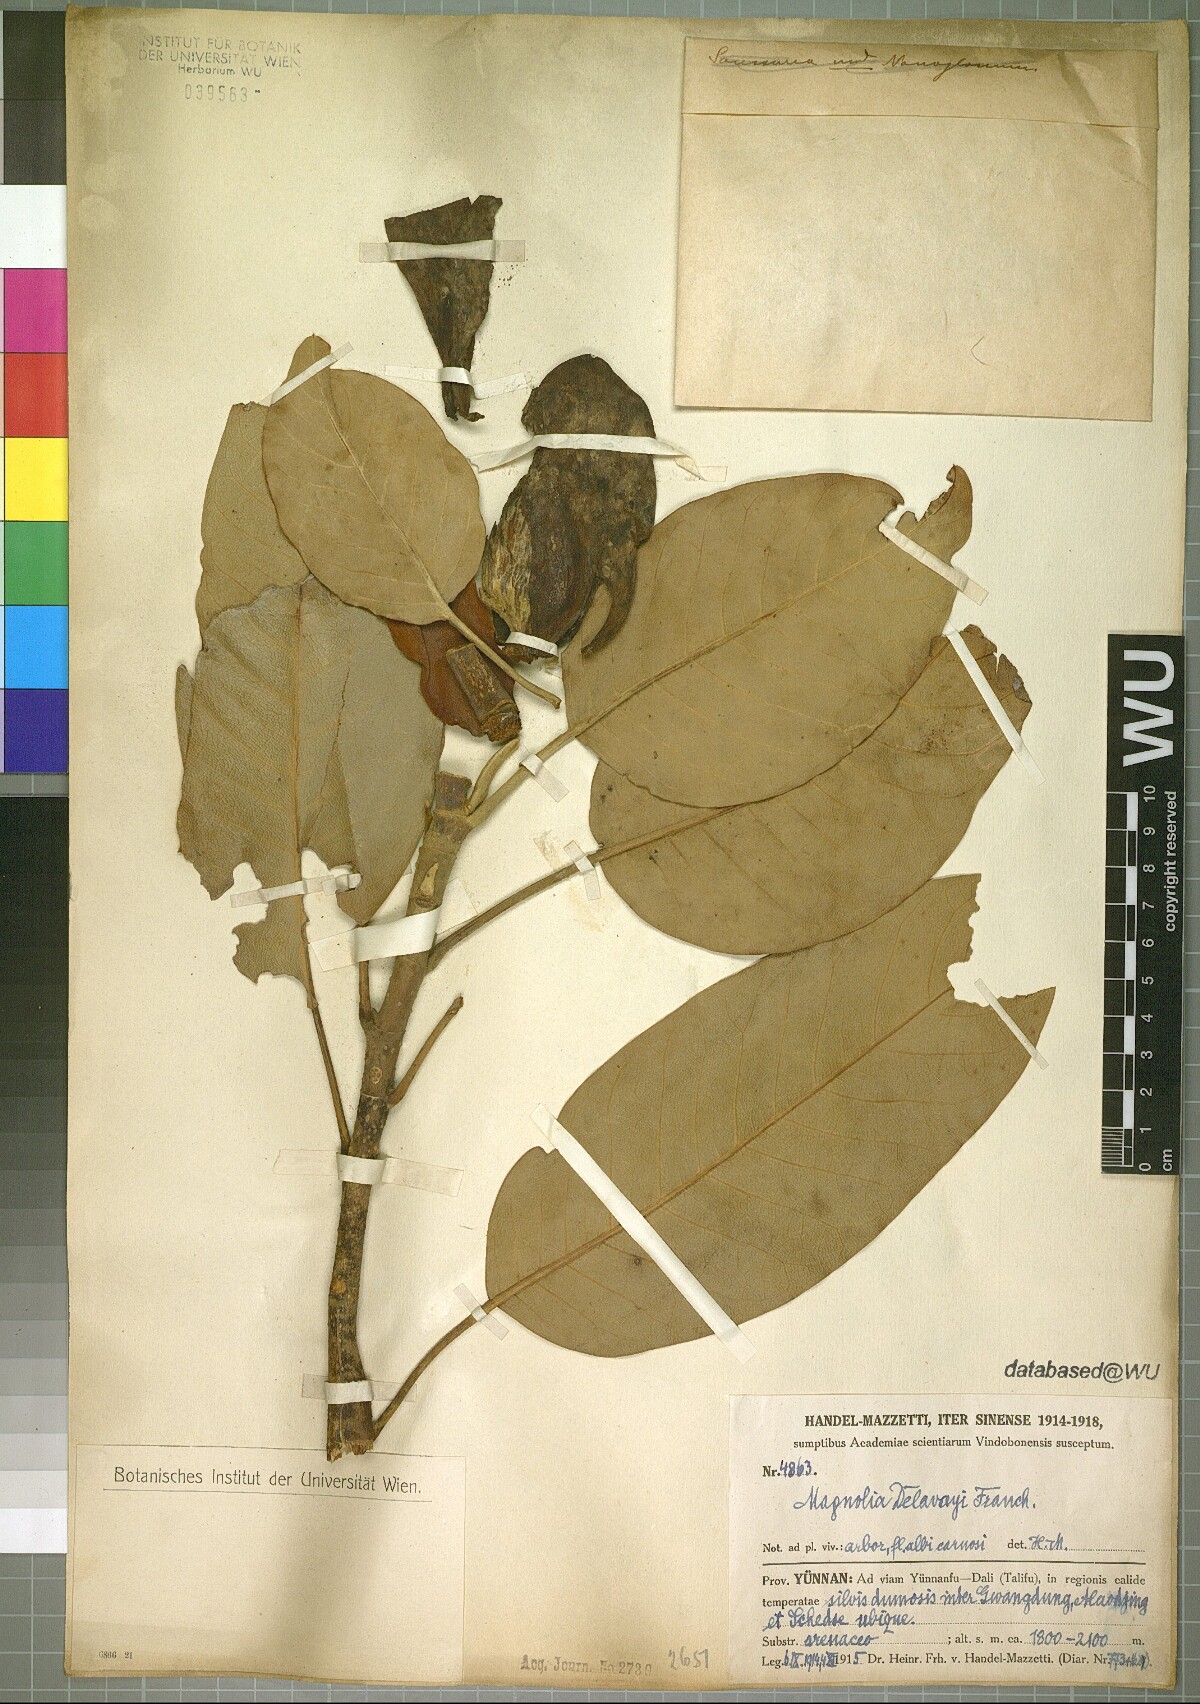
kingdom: Plantae
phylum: Tracheophyta
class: Magnoliopsida
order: Magnoliales
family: Magnoliaceae
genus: Magnolia
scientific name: Magnolia delavayi
